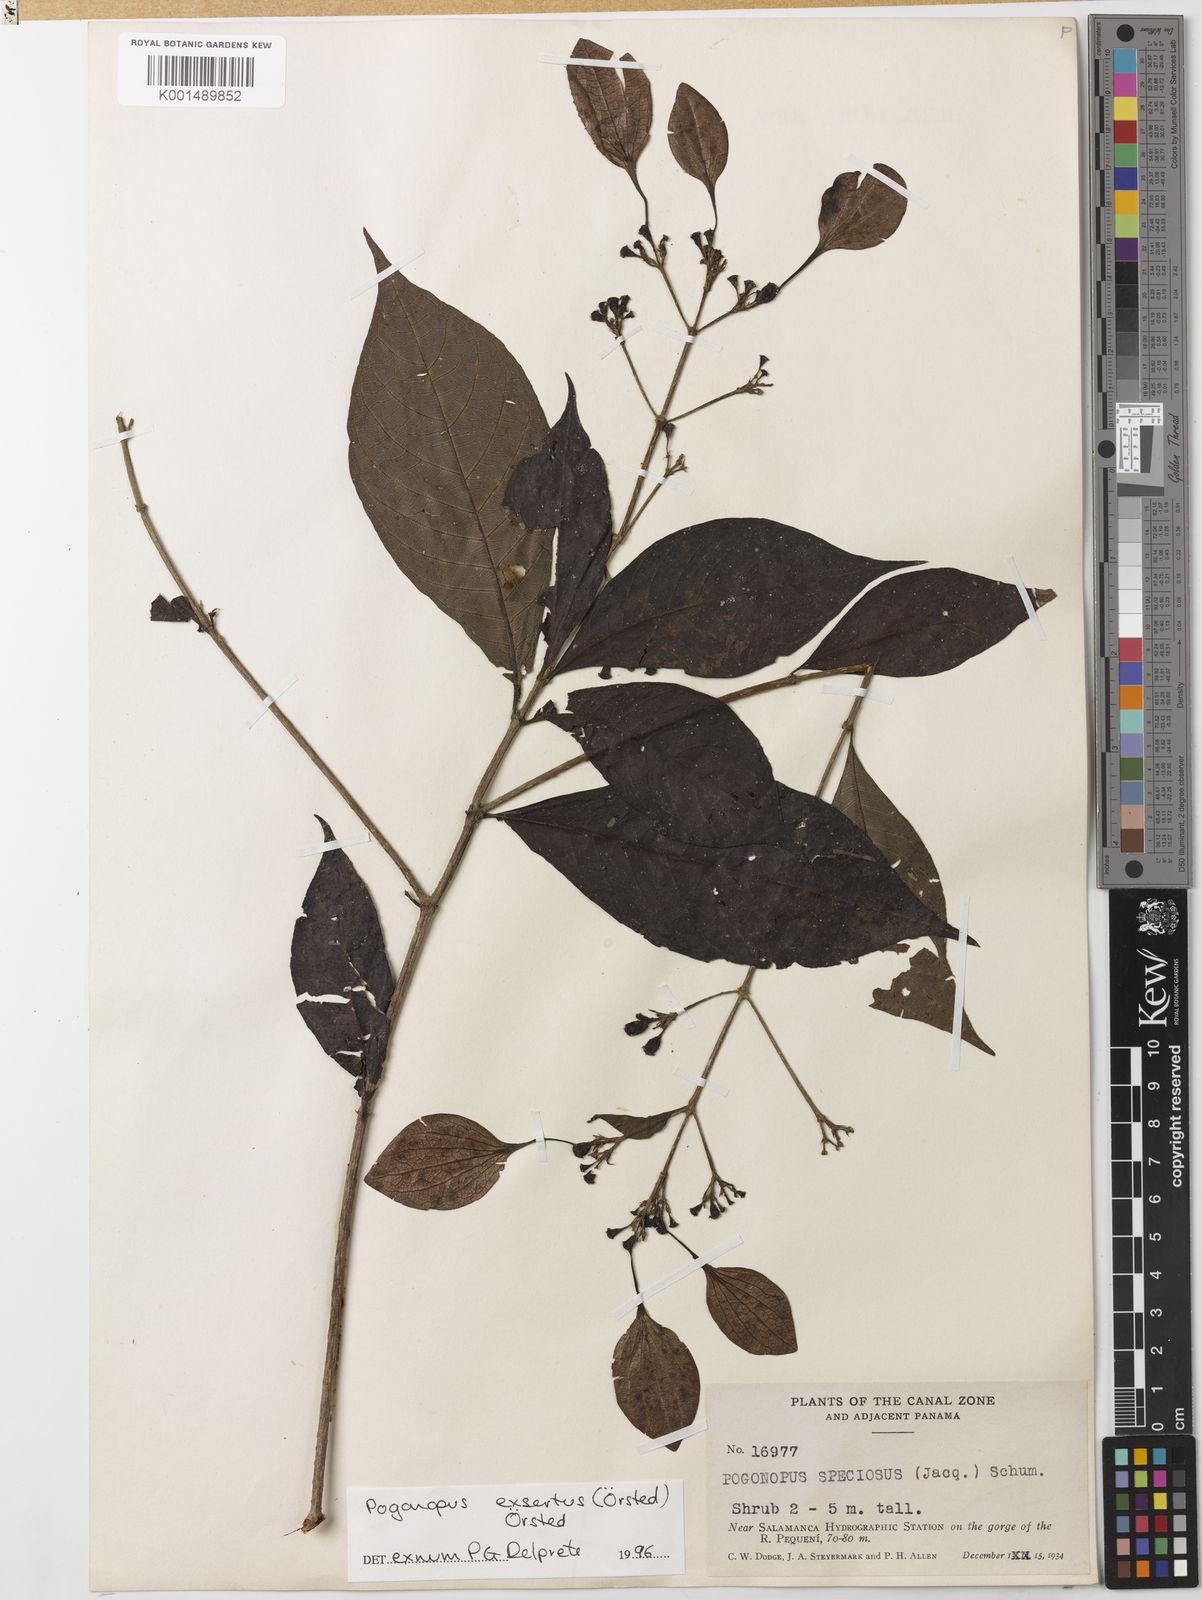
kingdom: Plantae
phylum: Tracheophyta
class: Magnoliopsida
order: Gentianales
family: Rubiaceae
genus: Pogonopus
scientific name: Pogonopus exsertus
